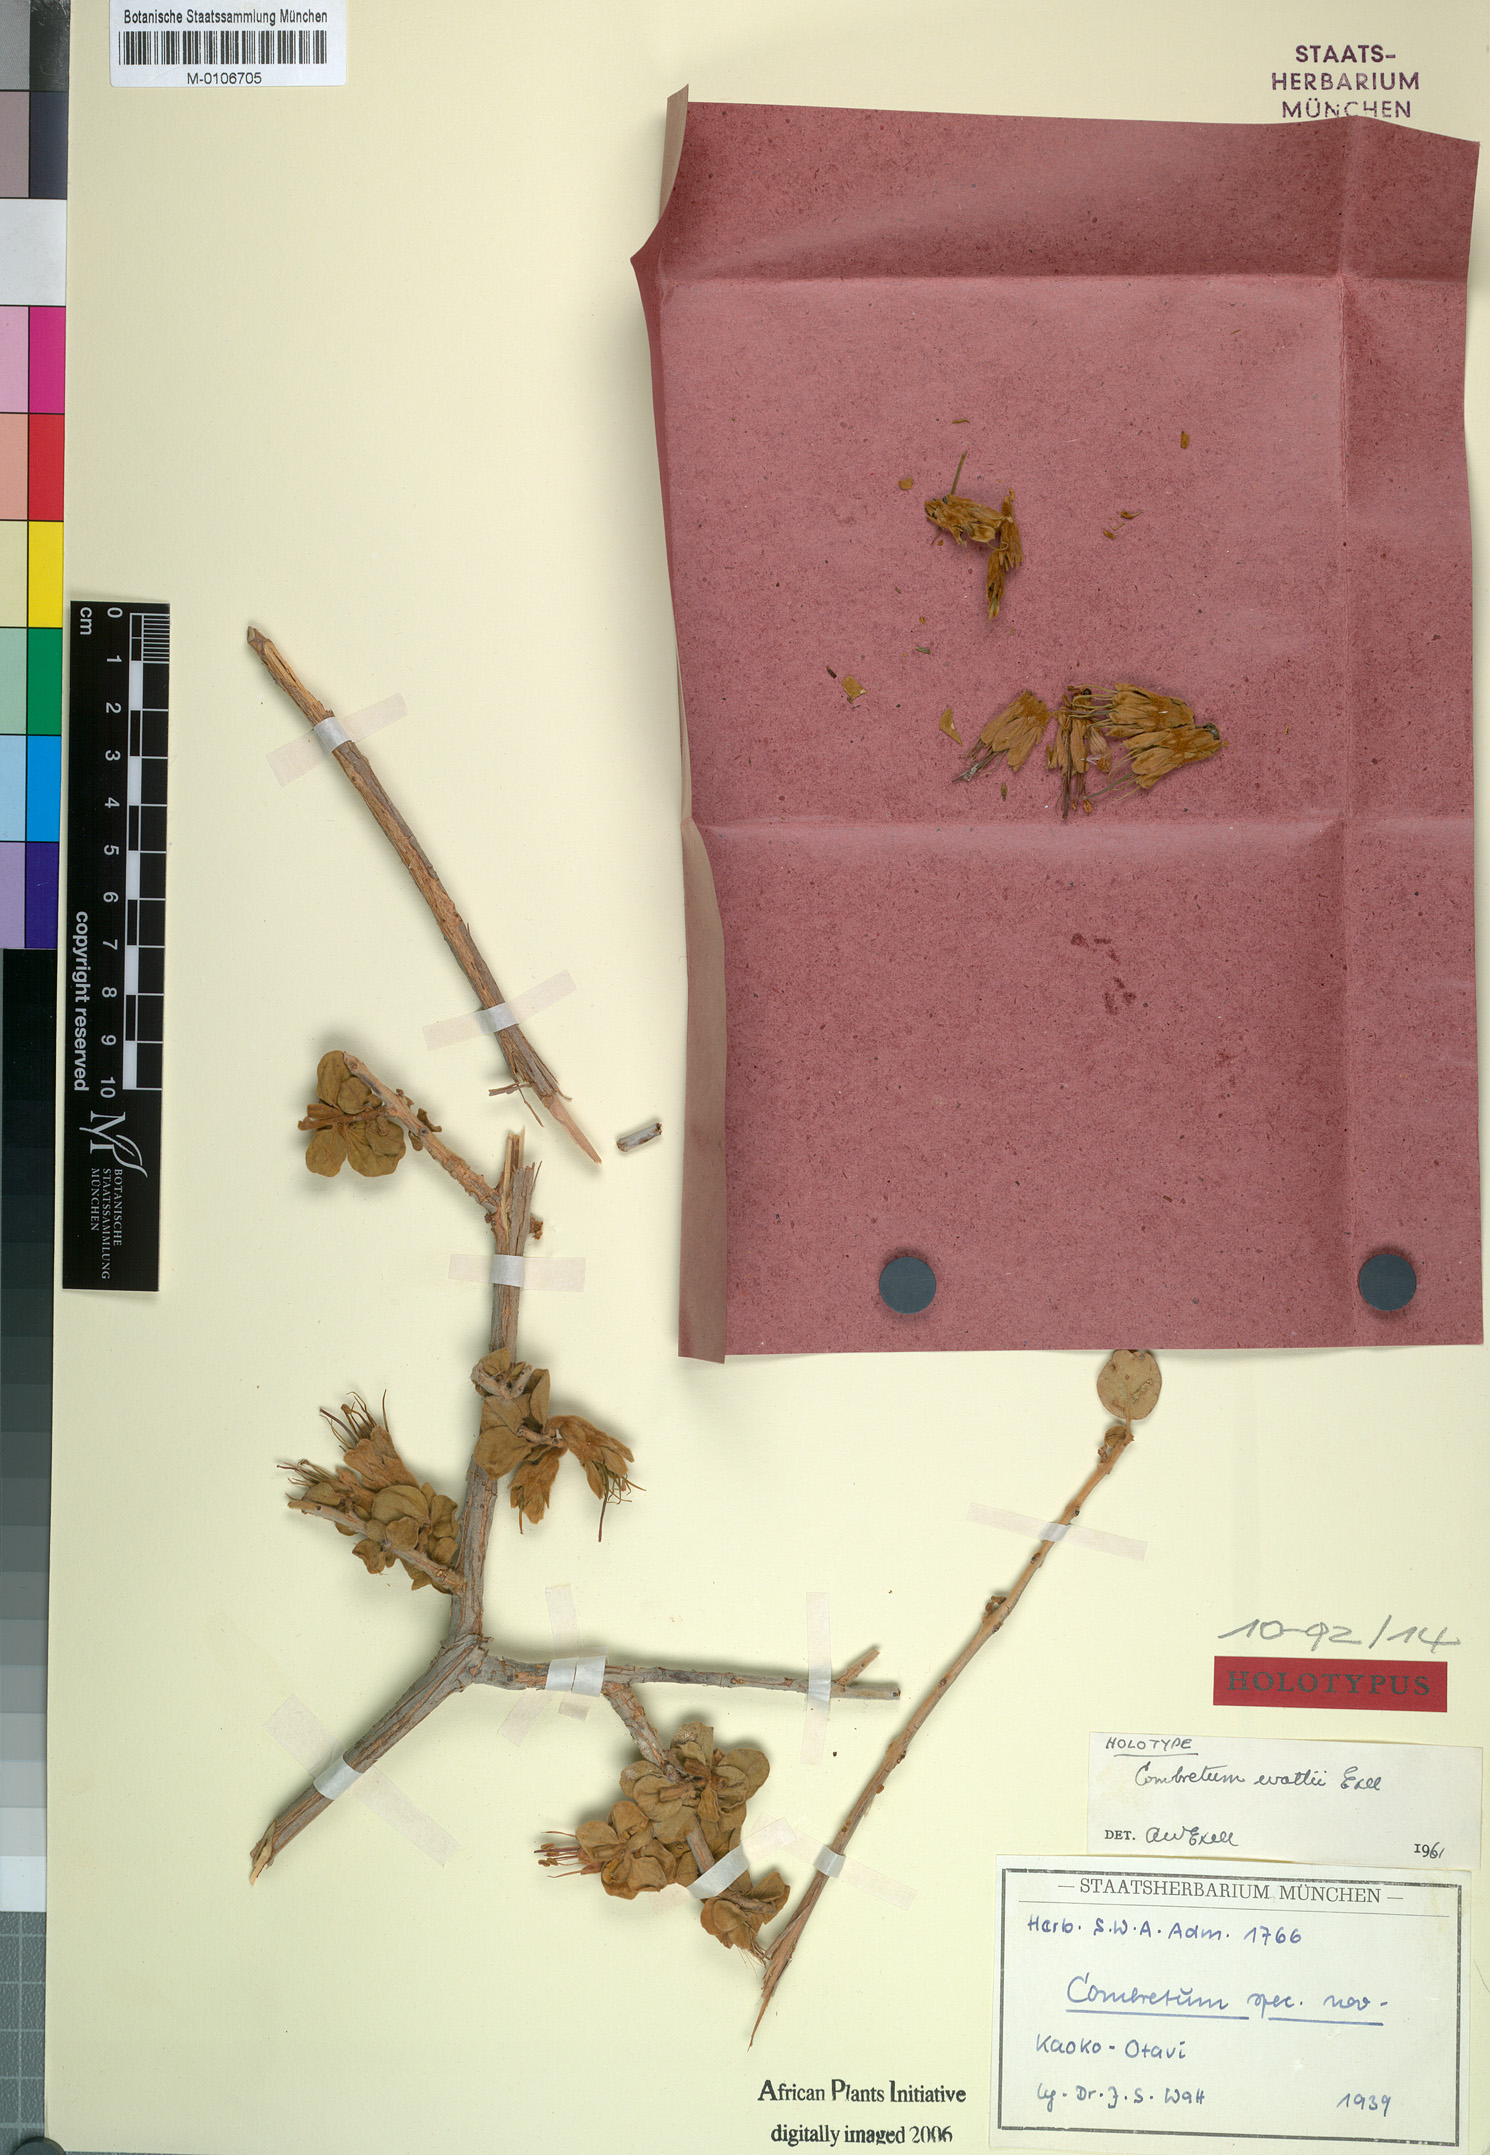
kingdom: Plantae
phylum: Tracheophyta
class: Magnoliopsida
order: Myrtales
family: Combretaceae
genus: Combretum
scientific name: Combretum wattii
